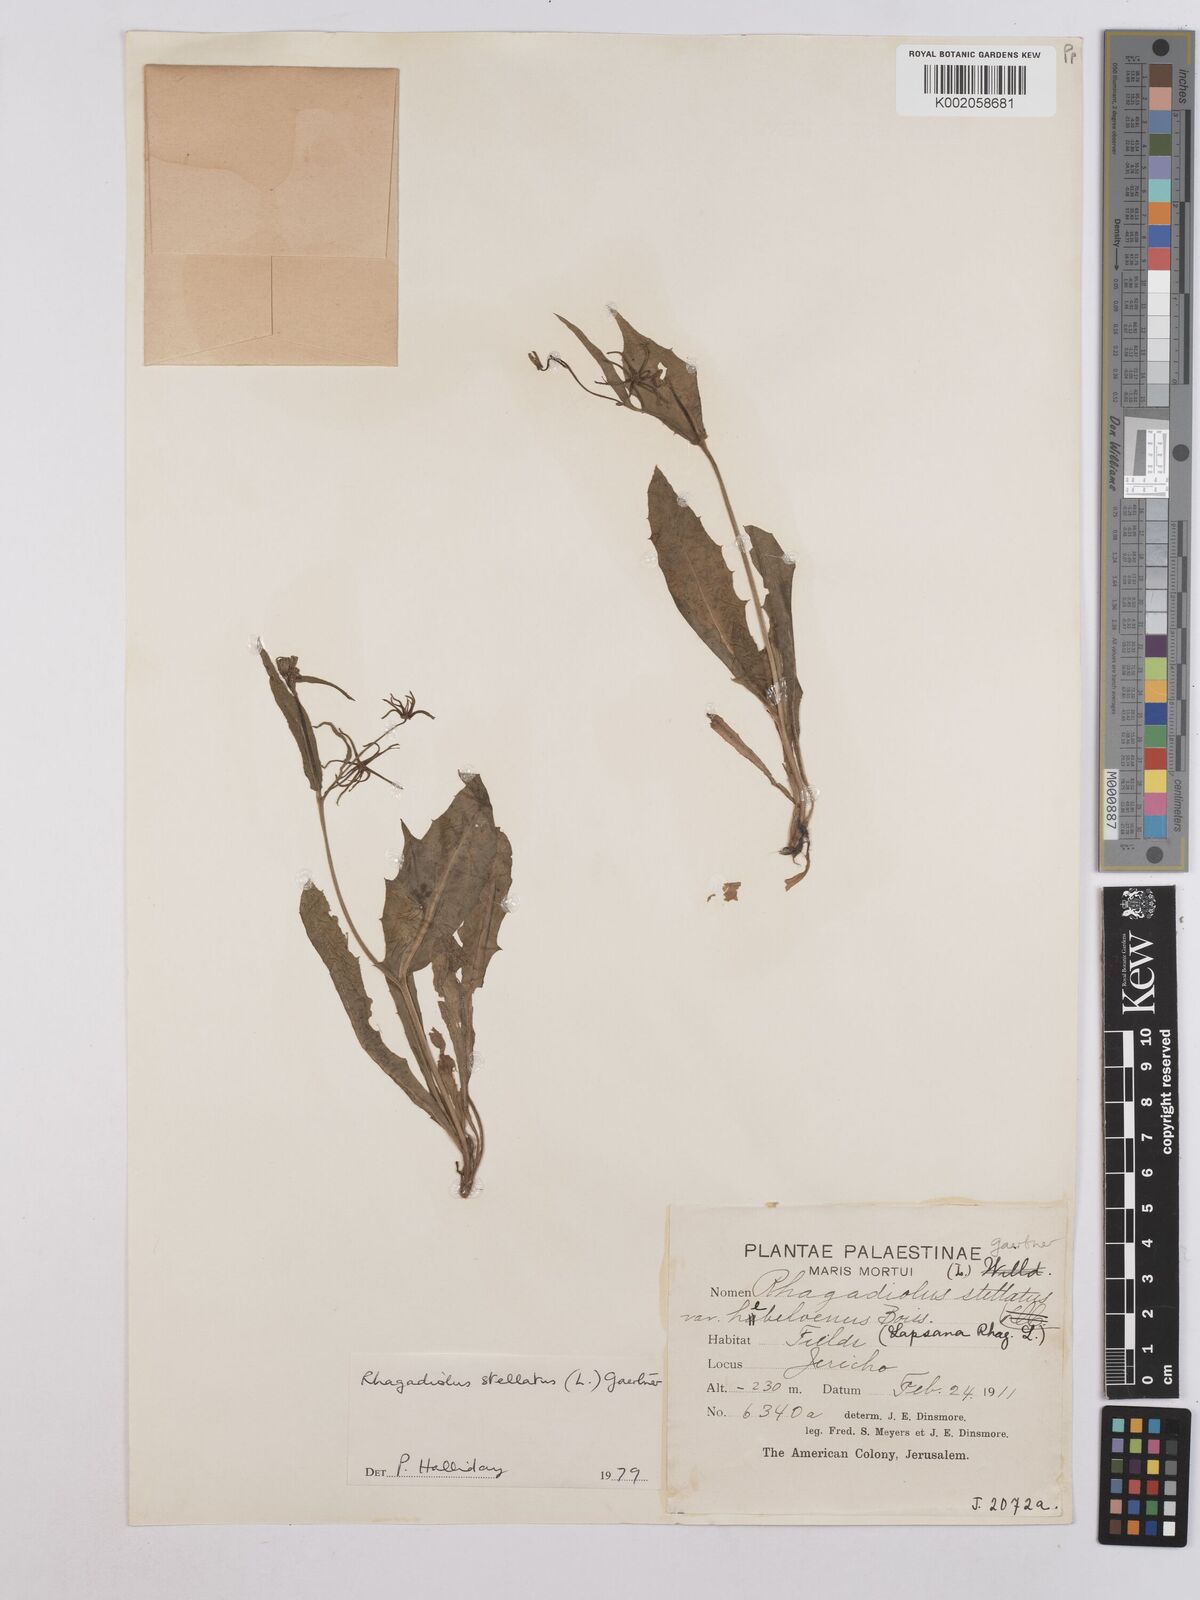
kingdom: Plantae
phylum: Tracheophyta
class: Magnoliopsida
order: Asterales
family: Asteraceae
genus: Rhagadiolus
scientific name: Rhagadiolus stellatus
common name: Star hawkbit
